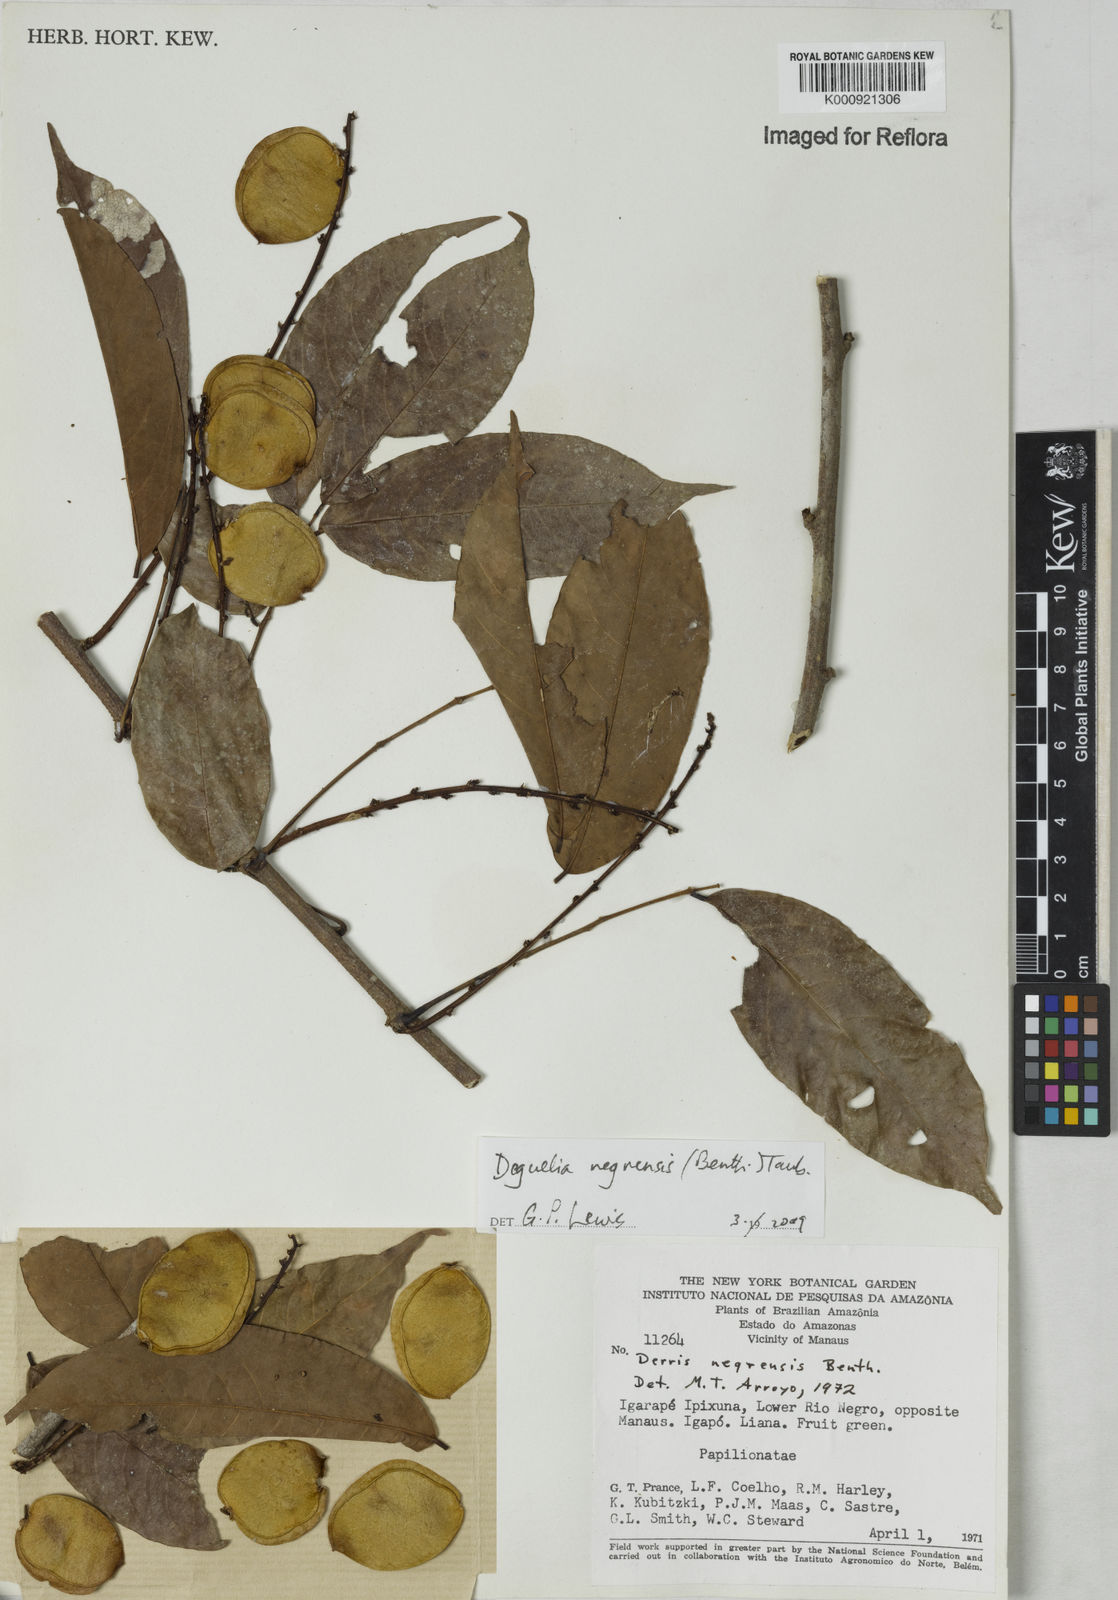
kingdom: Plantae
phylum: Tracheophyta
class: Magnoliopsida
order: Fabales
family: Fabaceae
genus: Deguelia
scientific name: Deguelia negrensis
